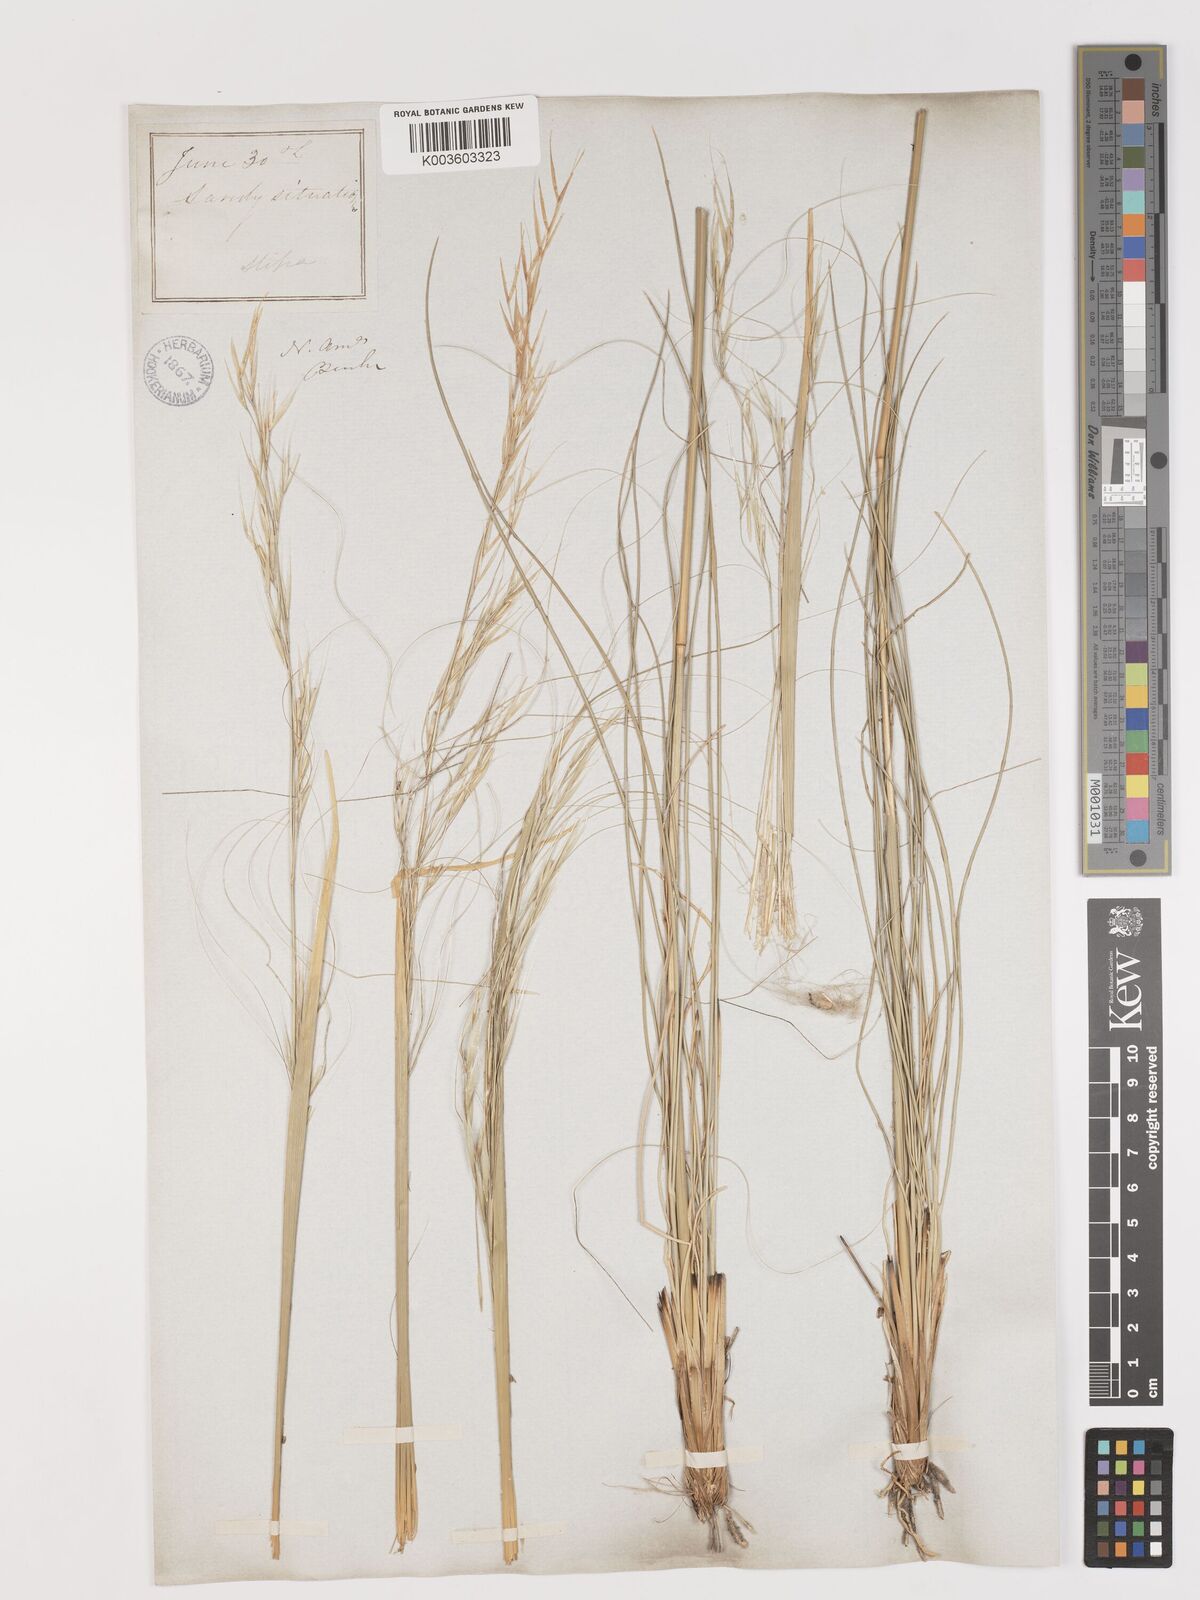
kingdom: Plantae
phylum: Tracheophyta
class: Liliopsida
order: Poales
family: Poaceae
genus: Hesperostipa
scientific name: Hesperostipa comata
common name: Needle-and-thread grass
